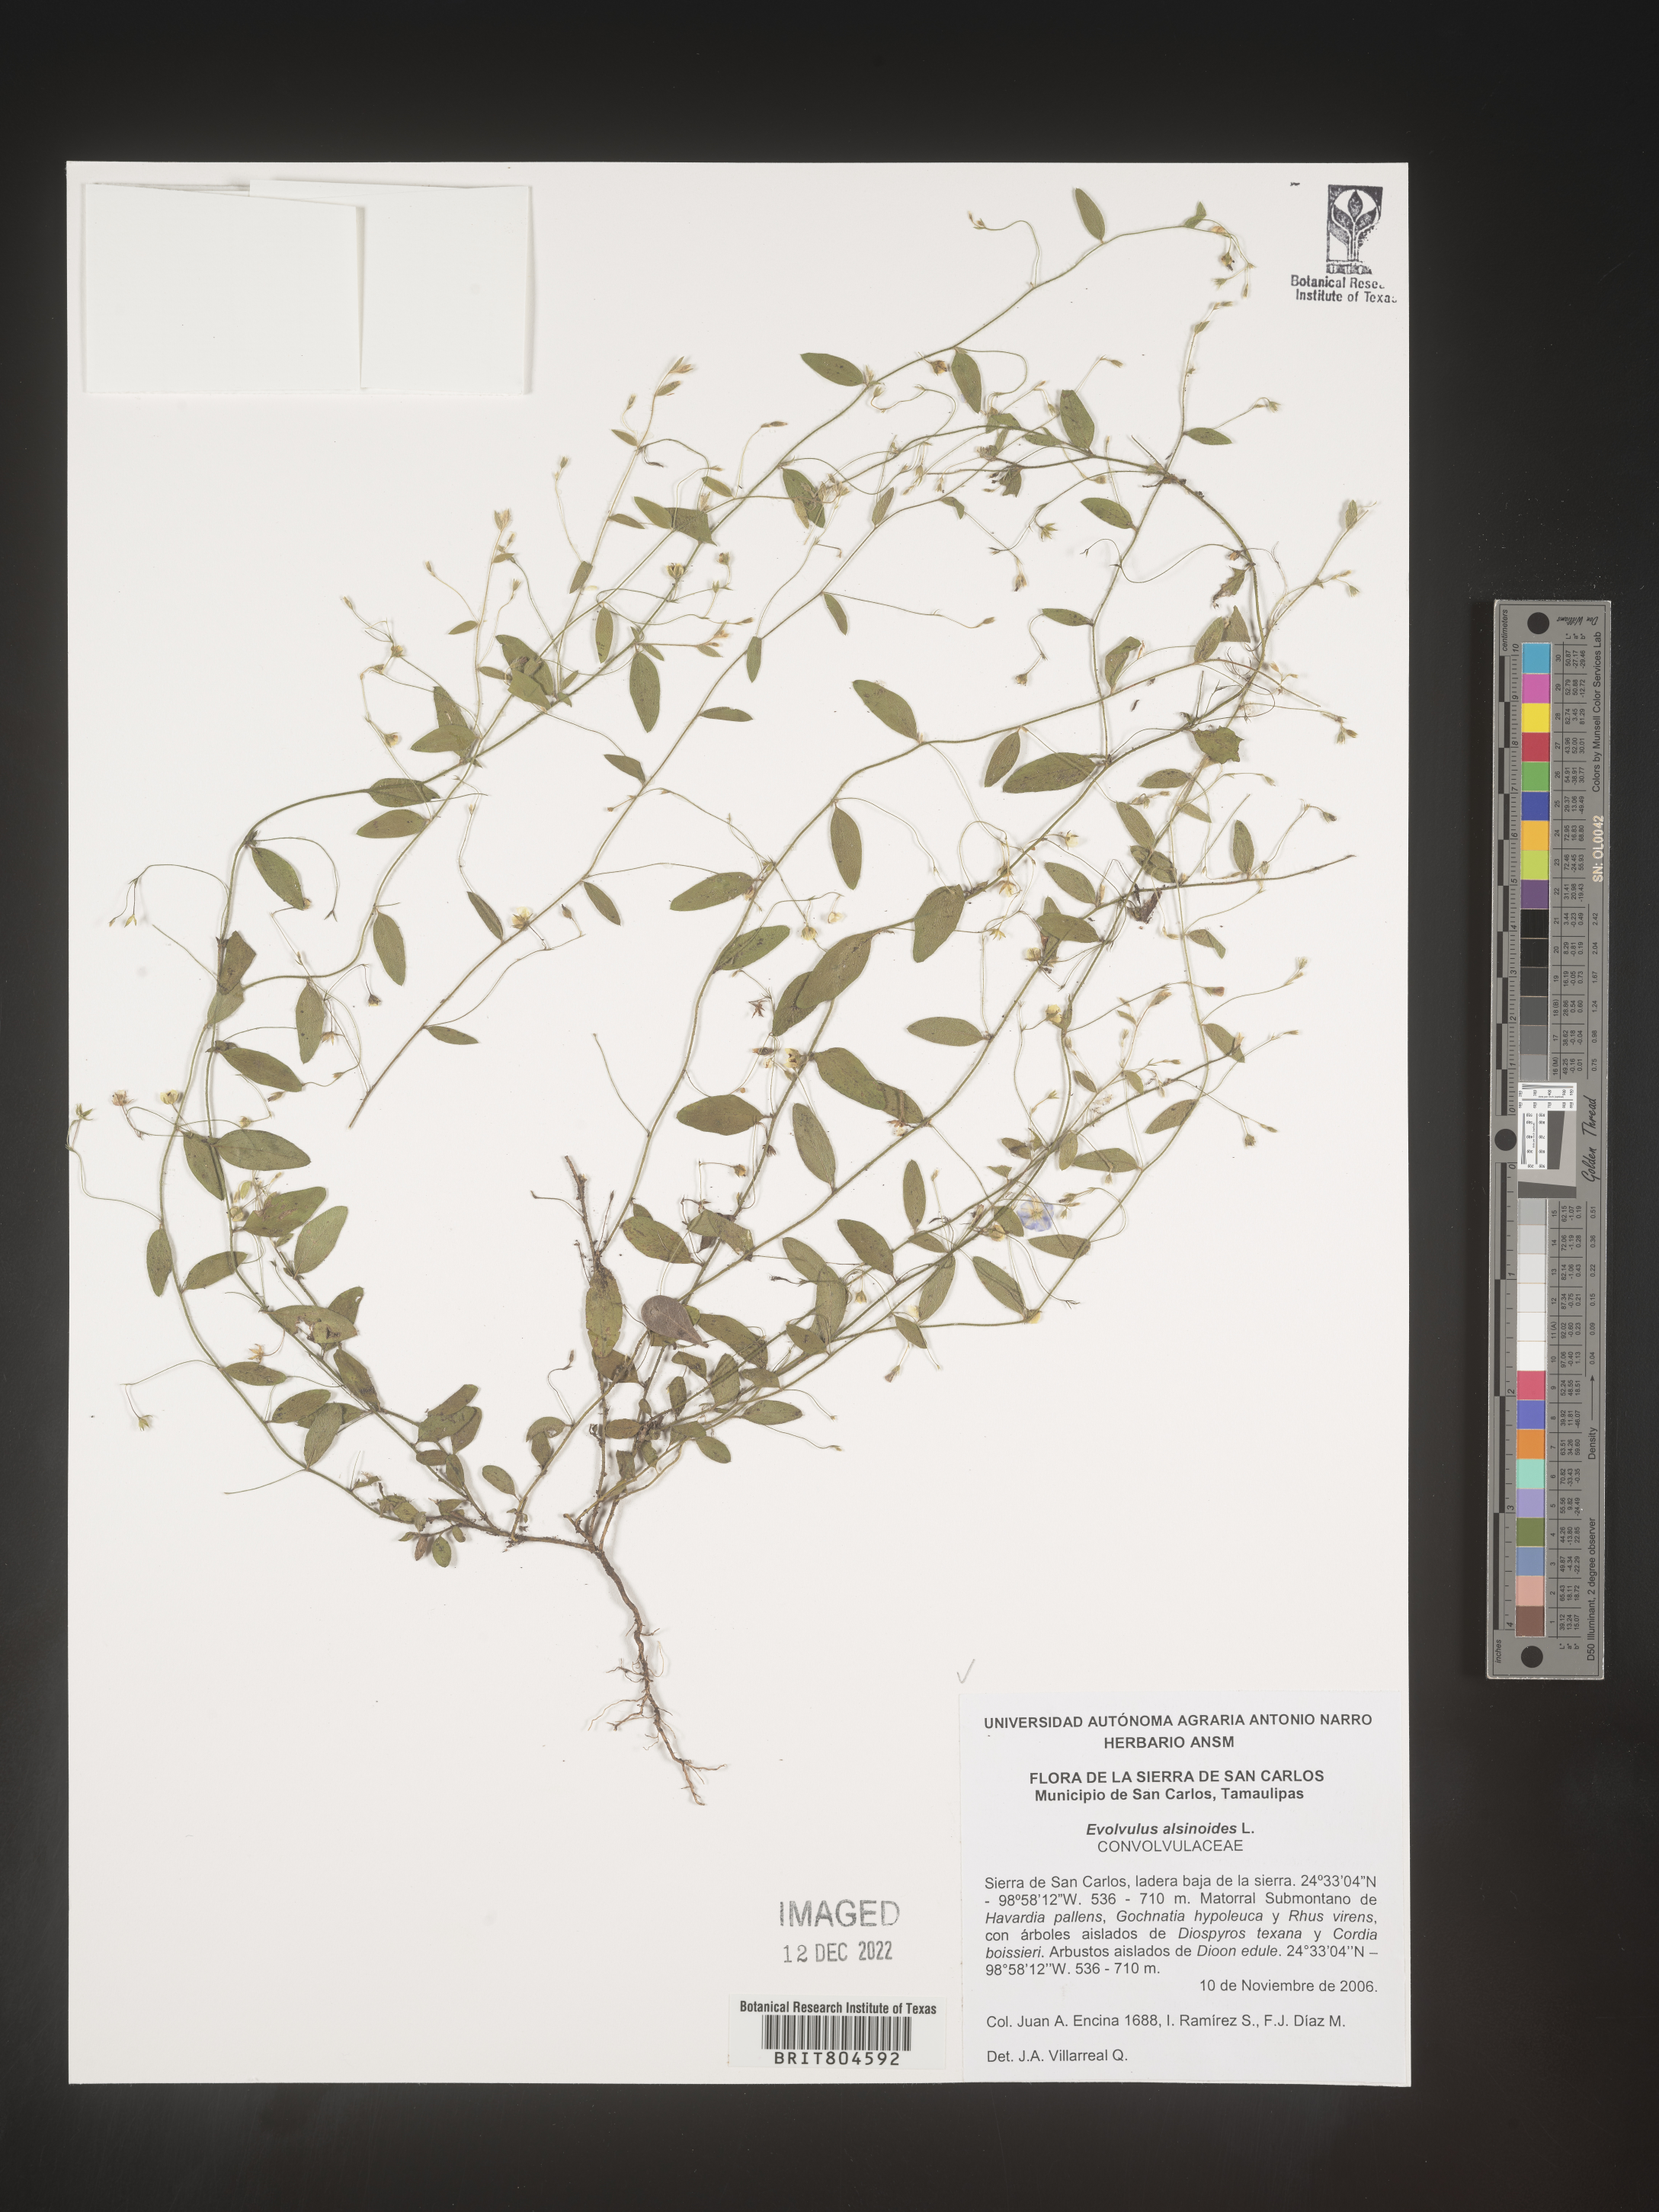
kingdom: Plantae
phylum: Tracheophyta
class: Magnoliopsida
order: Solanales
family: Convolvulaceae
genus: Evolvulus
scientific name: Evolvulus
